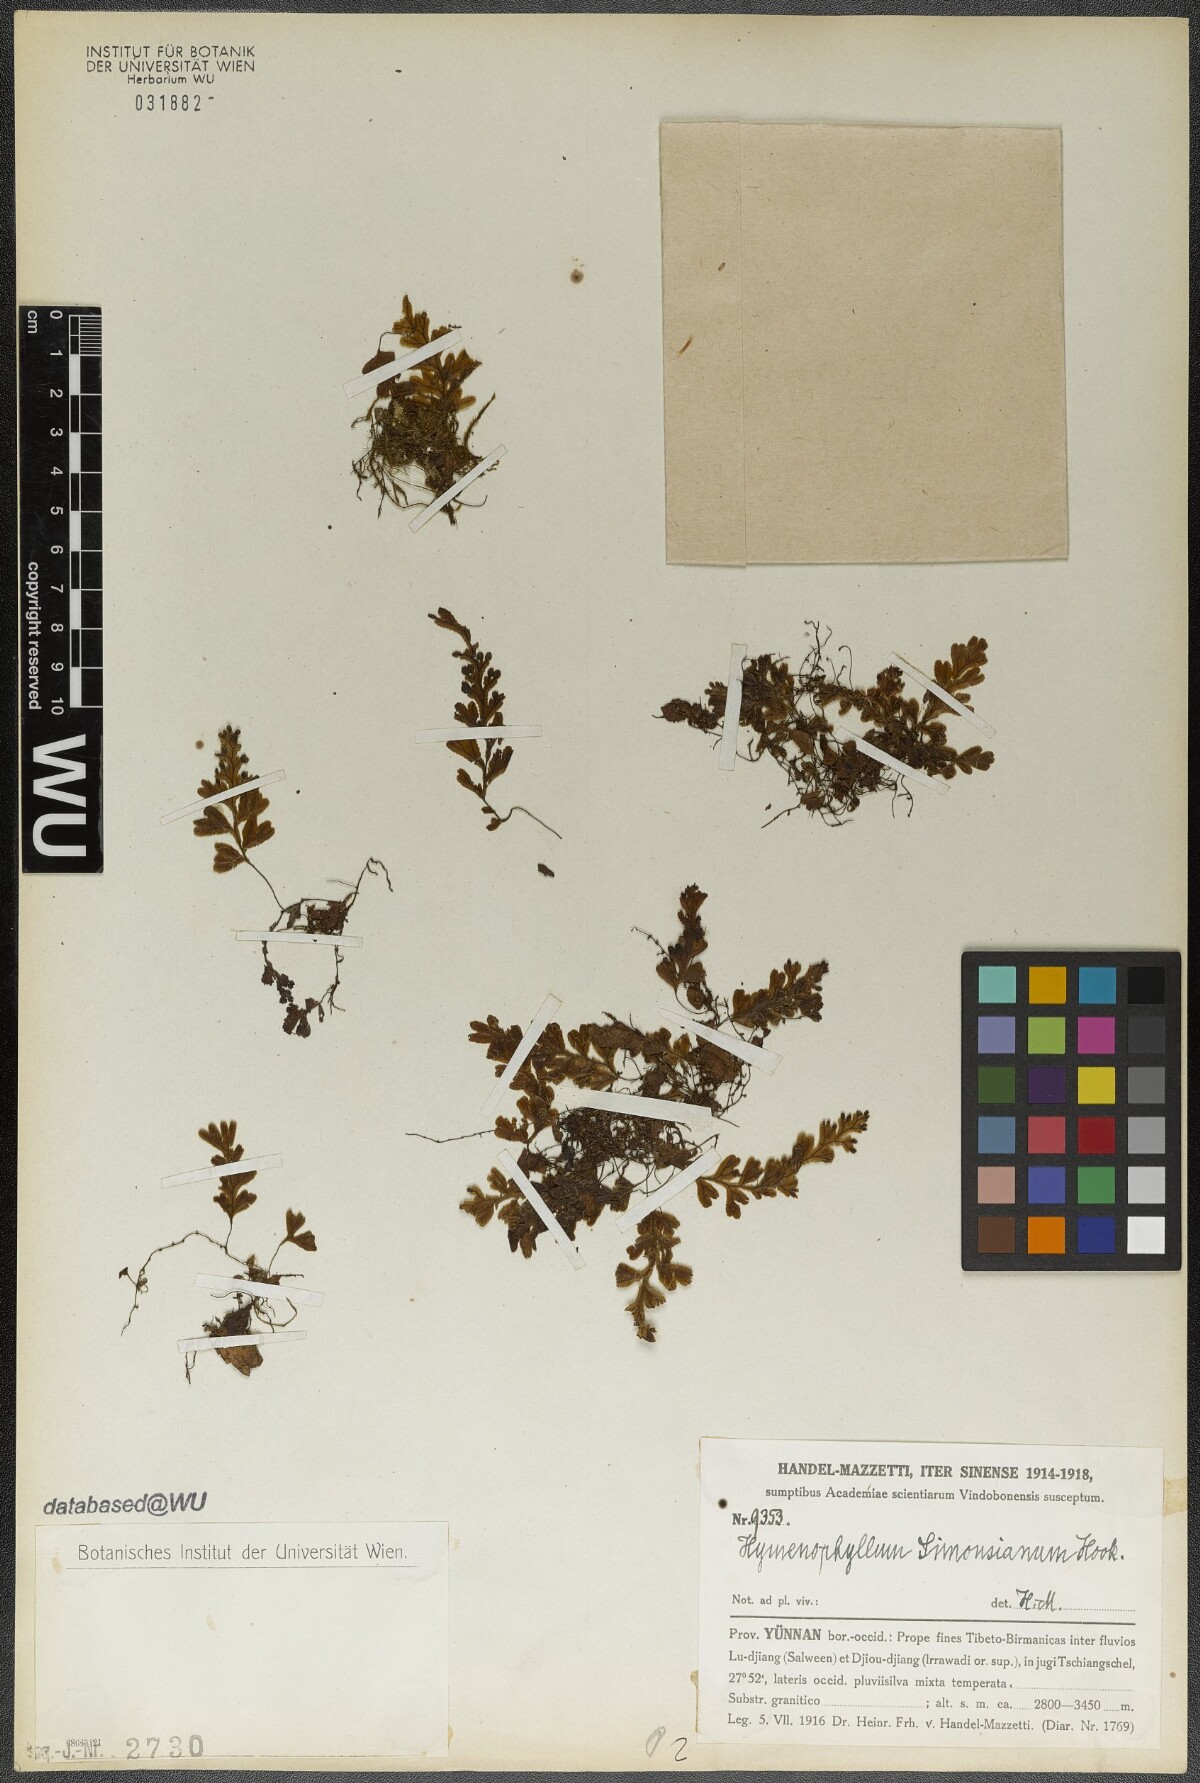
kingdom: Plantae
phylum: Tracheophyta
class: Polypodiopsida
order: Hymenophyllales
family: Hymenophyllaceae
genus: Hymenophyllum
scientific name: Hymenophyllum simonsianum
